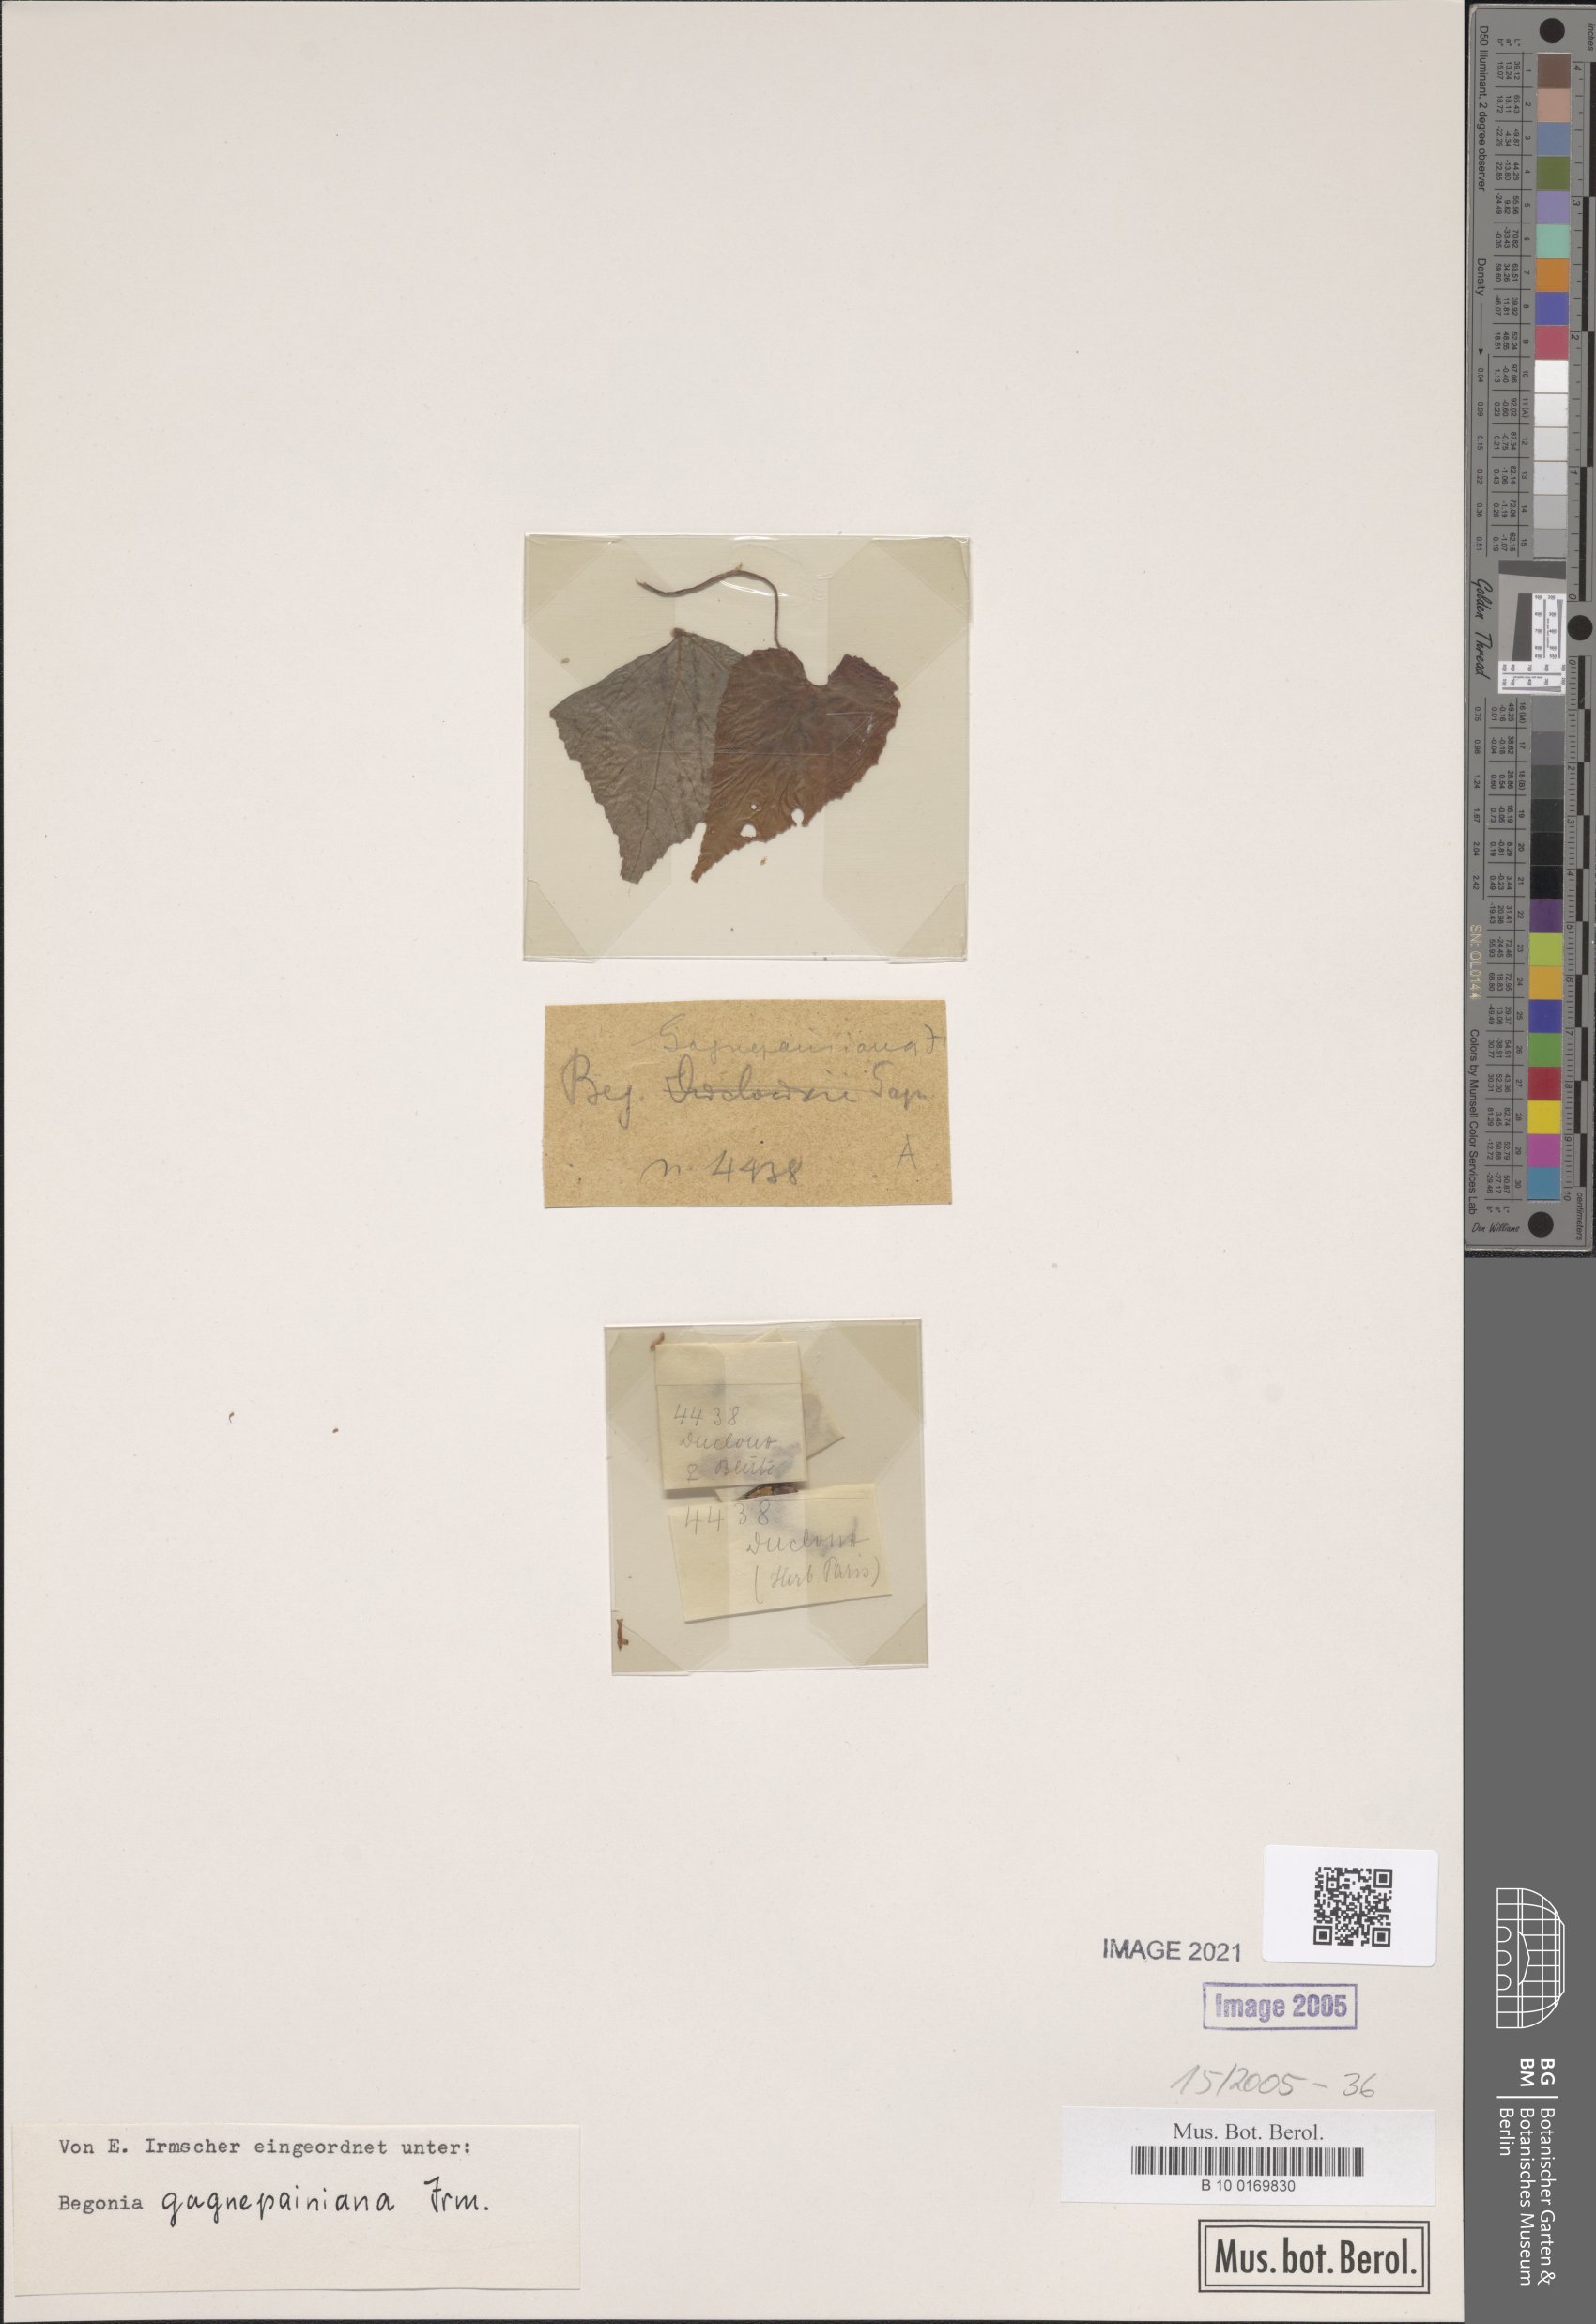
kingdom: Plantae
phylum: Tracheophyta
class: Magnoliopsida
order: Cucurbitales
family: Begoniaceae
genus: Begonia
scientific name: Begonia gagnepainiana
